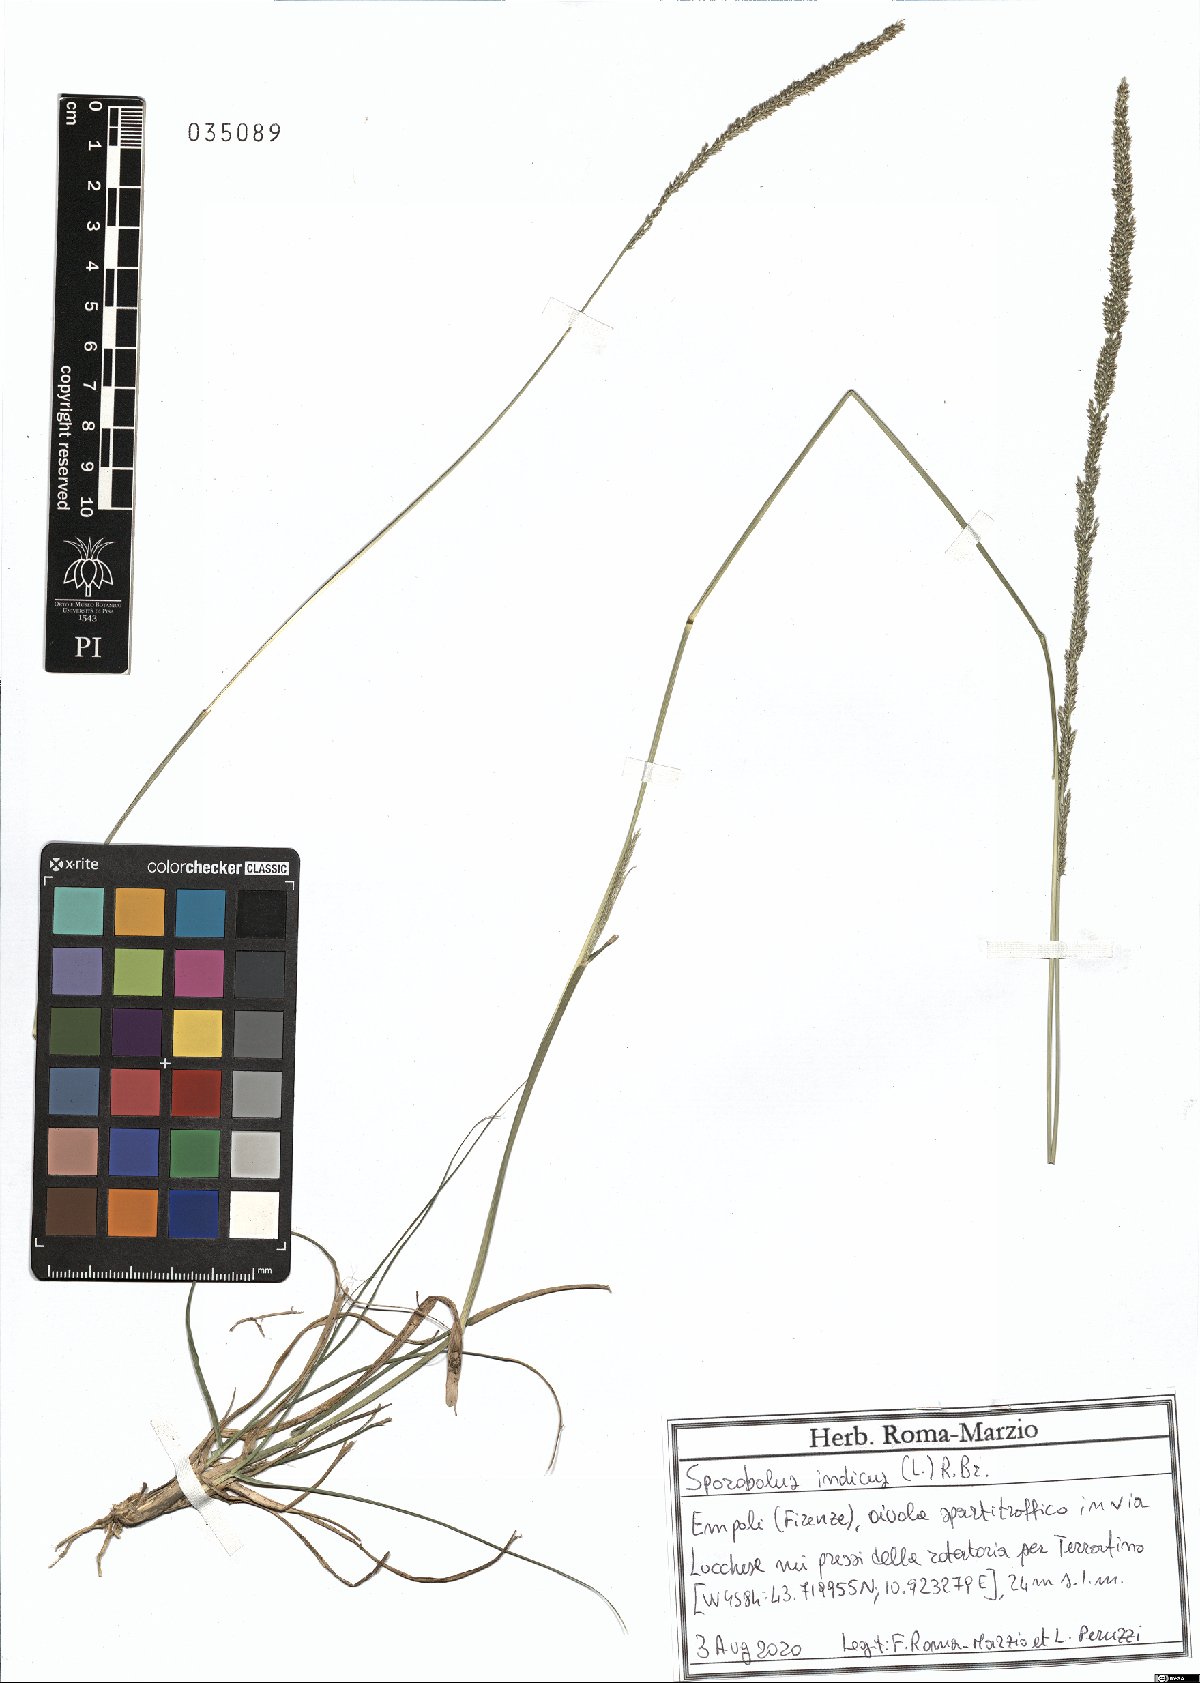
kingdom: Plantae
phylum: Tracheophyta
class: Liliopsida
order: Poales
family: Poaceae
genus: Sporobolus
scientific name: Sporobolus indicus
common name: Smut grass
